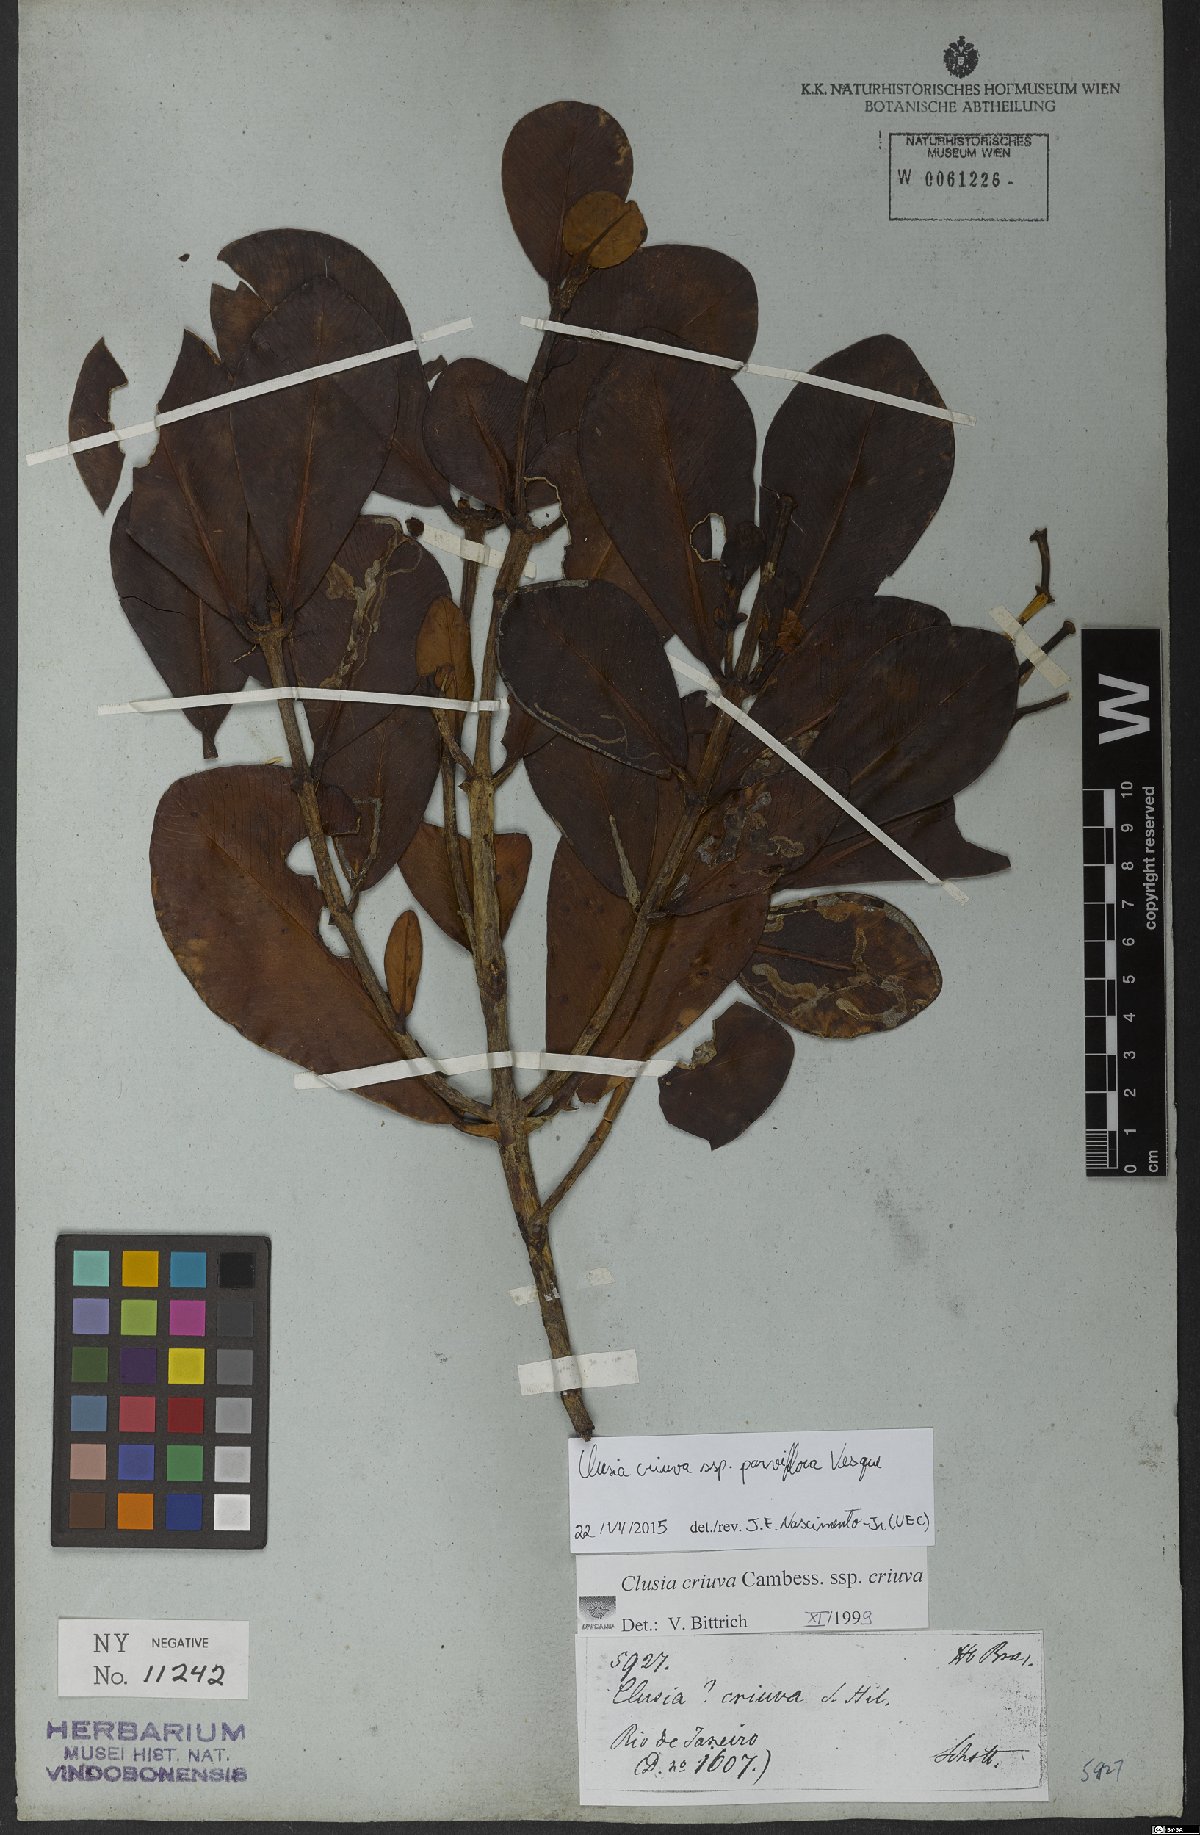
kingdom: Plantae
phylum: Tracheophyta
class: Magnoliopsida
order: Malpighiales
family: Clusiaceae
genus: Clusia
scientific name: Clusia criuva
